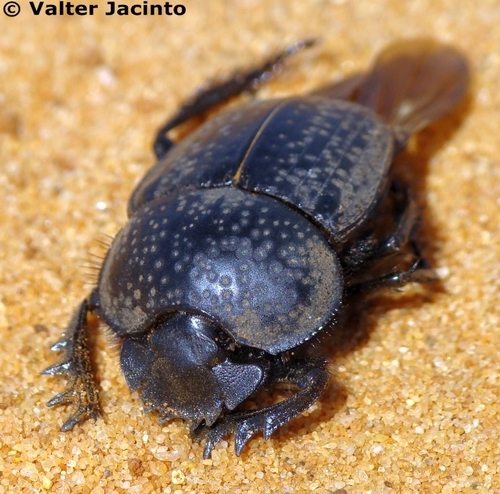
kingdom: Animalia
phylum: Arthropoda
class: Insecta
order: Coleoptera
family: Scarabaeidae
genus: Ateuchetus
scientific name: Ateuchetus cicatricosus
